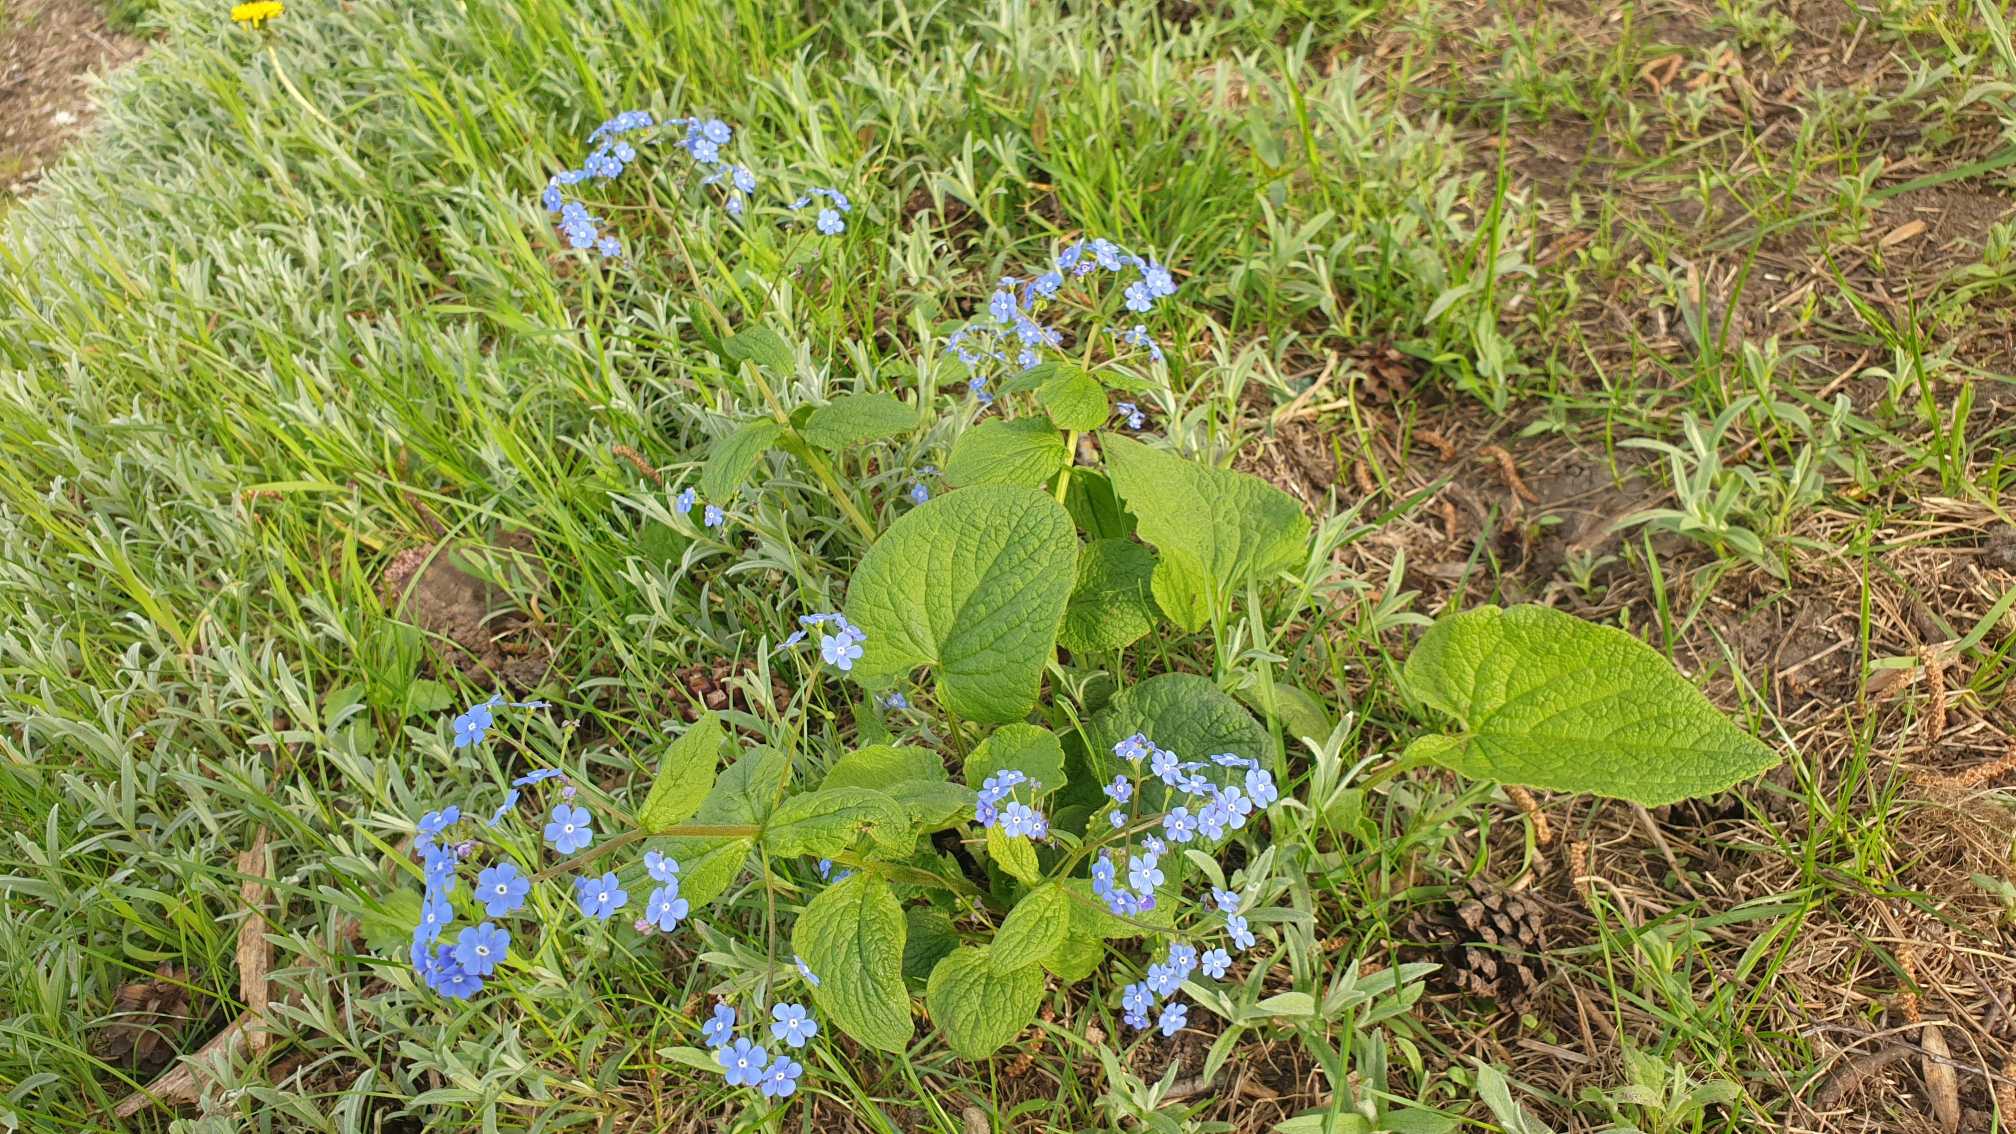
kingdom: Plantae
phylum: Tracheophyta
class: Magnoliopsida
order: Boraginales
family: Boraginaceae
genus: Brunnera
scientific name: Brunnera macrophylla
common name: Kærmindesøster
